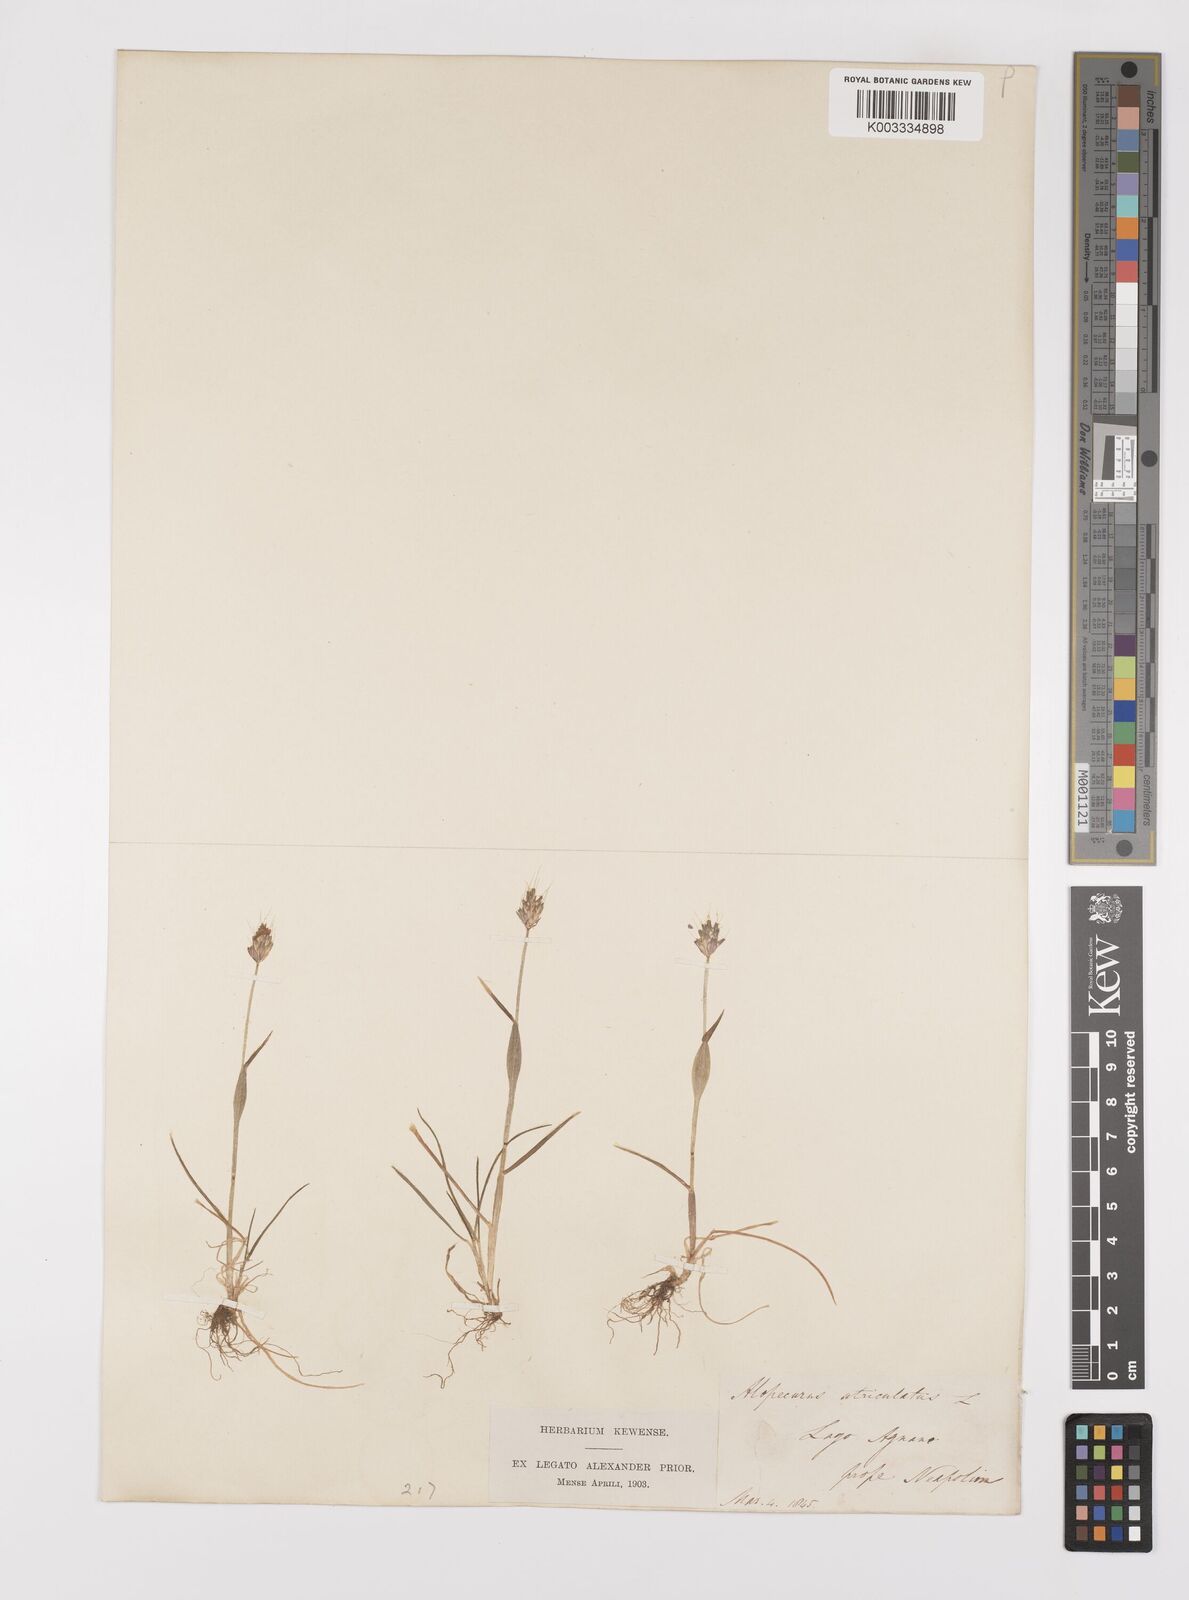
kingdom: Plantae
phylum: Tracheophyta
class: Liliopsida
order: Poales
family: Poaceae
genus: Alopecurus
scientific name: Alopecurus rendlei
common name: Rendle's meadow foxtail
